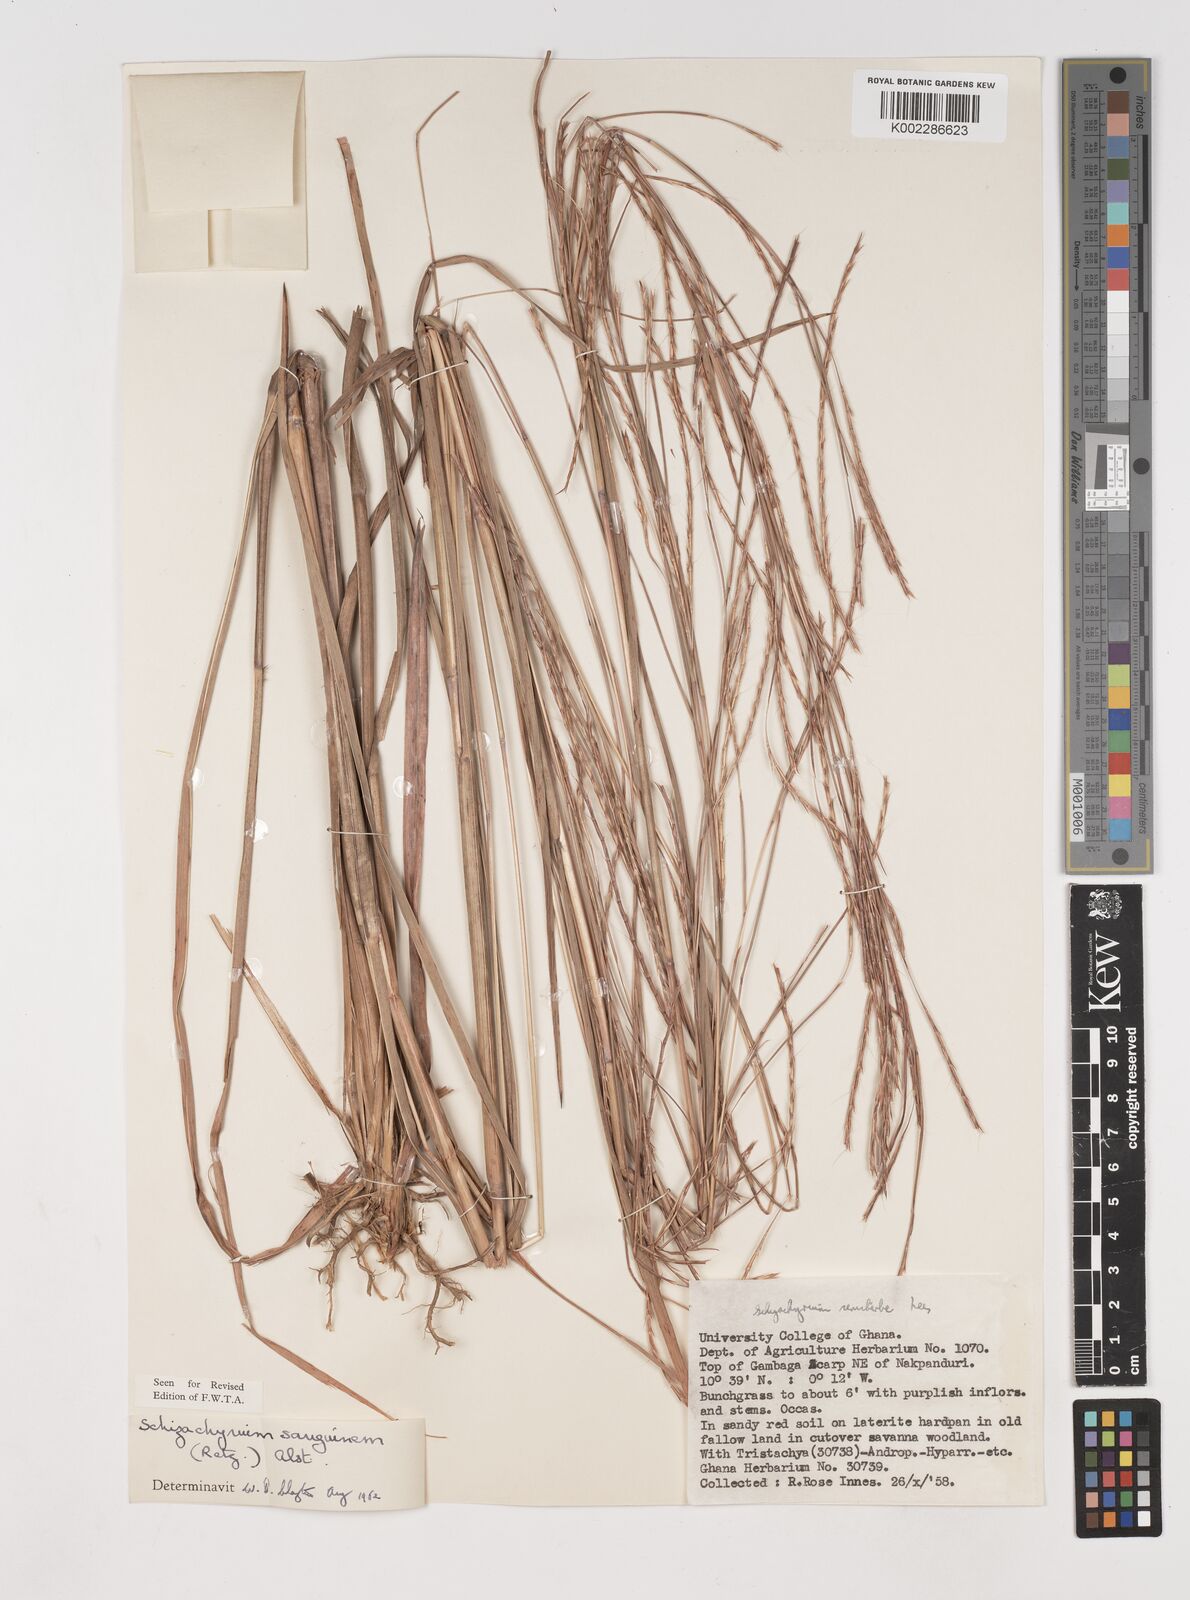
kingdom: Plantae
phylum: Tracheophyta
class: Liliopsida
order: Poales
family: Poaceae
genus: Schizachyrium
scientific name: Schizachyrium sanguineum
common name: Crimson bluestem
